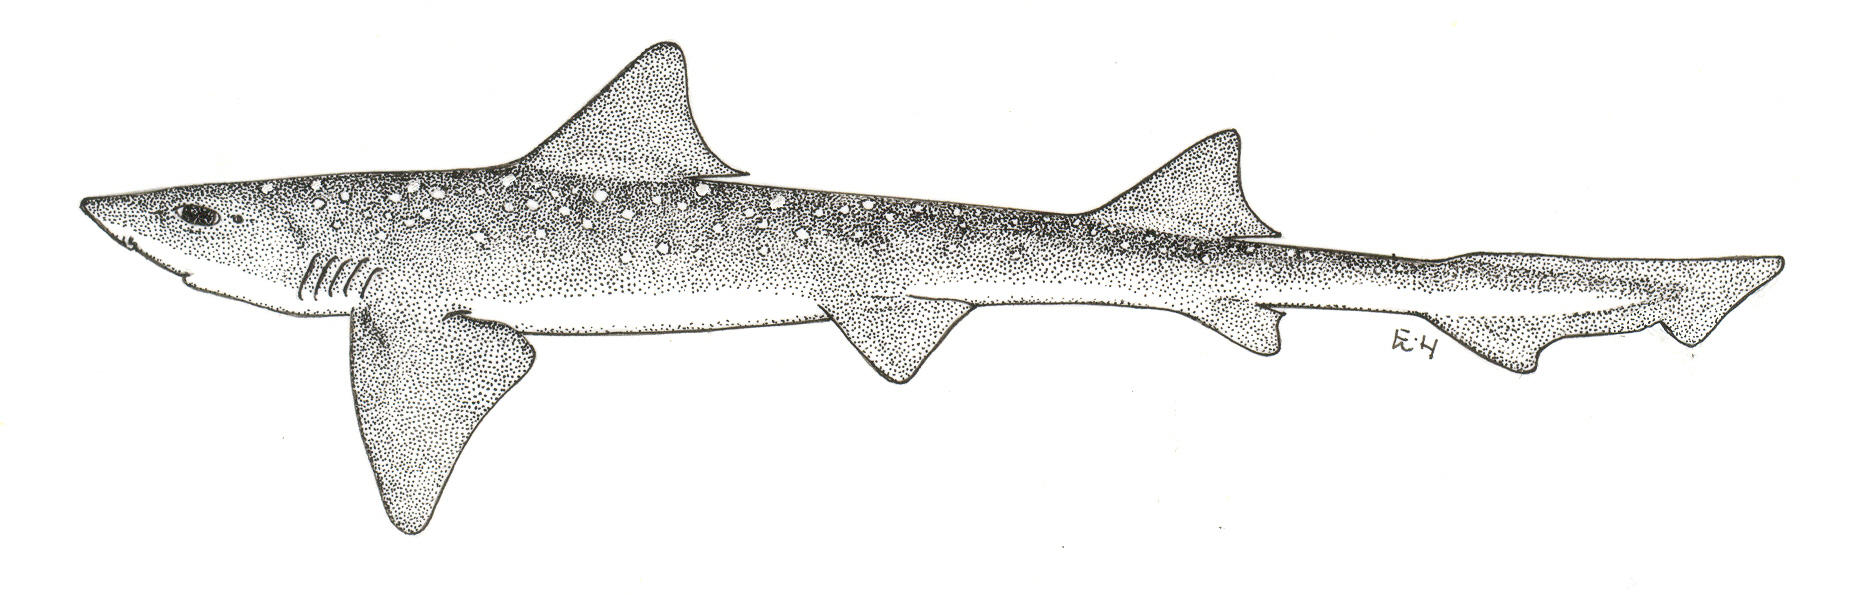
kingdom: Animalia
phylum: Chordata
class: Elasmobranchii
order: Carcharhiniformes
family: Triakidae
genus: Mustelus
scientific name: Mustelus palumbes
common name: Whitespotted smooth-hound
